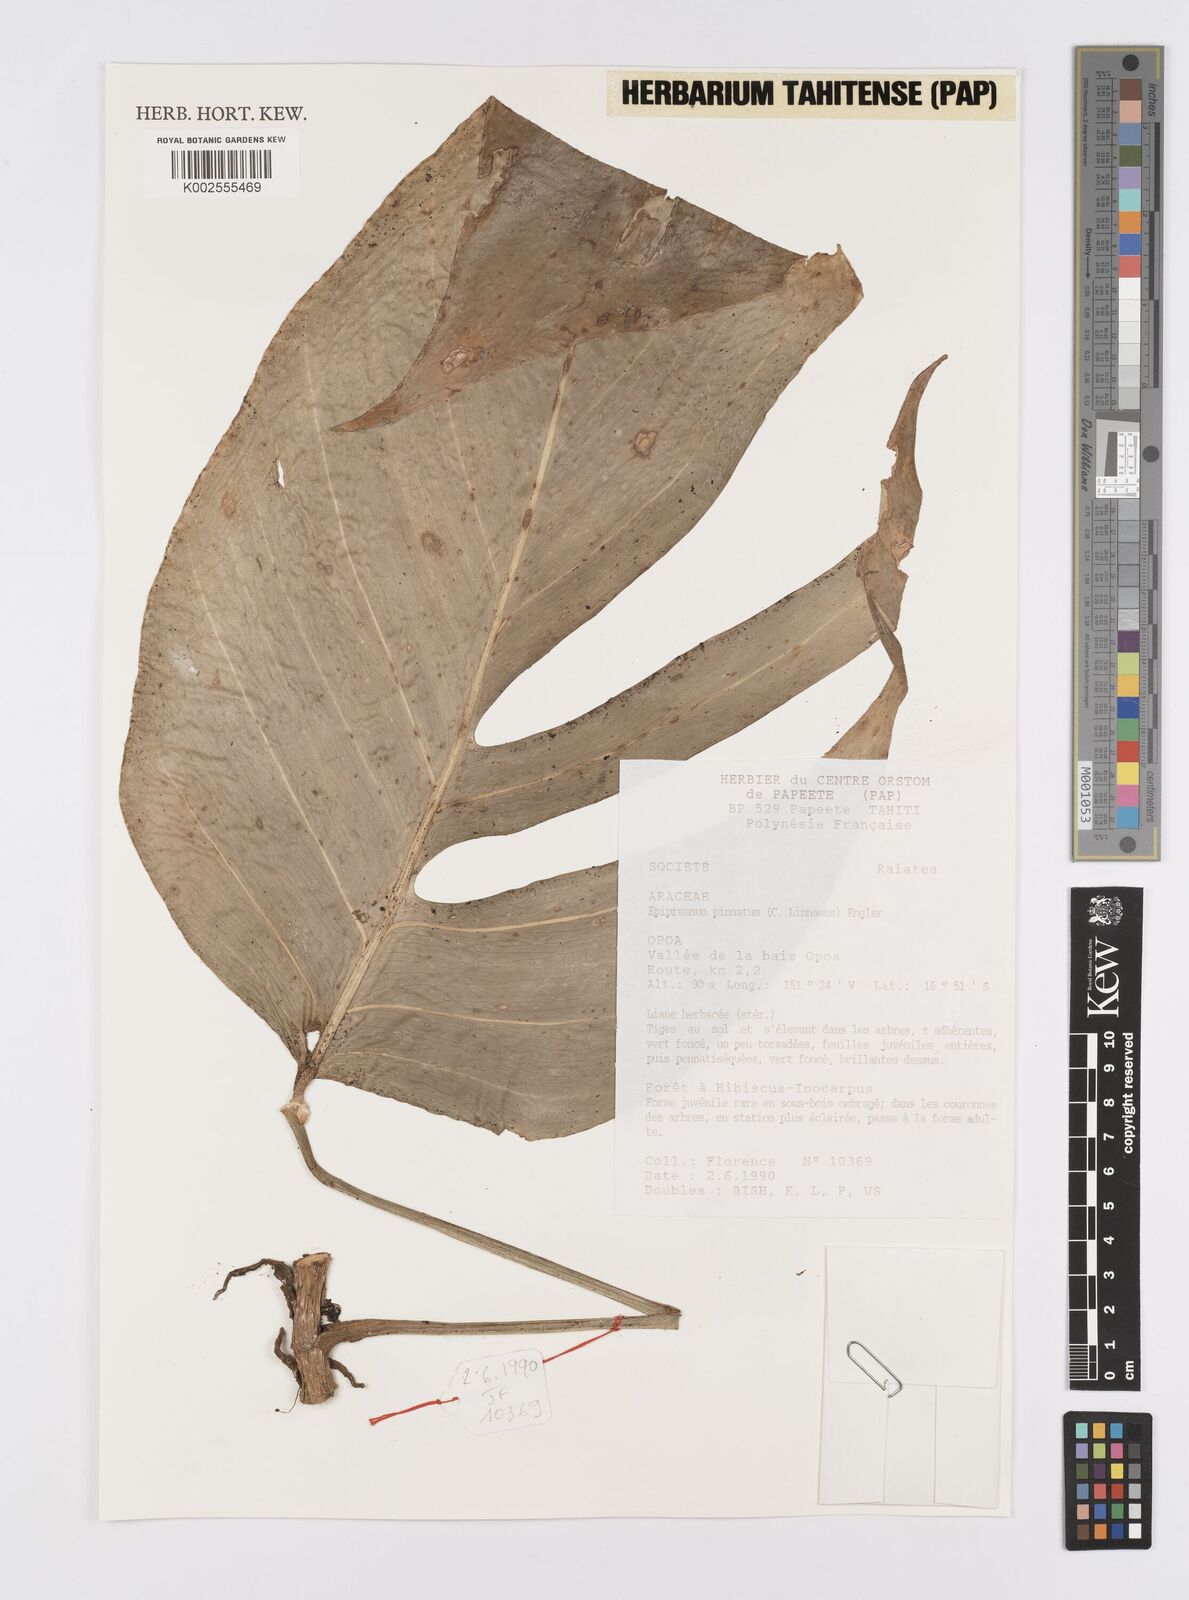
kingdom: Plantae
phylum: Tracheophyta
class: Liliopsida
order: Alismatales
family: Araceae
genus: Epipremnum
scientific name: Epipremnum pinnatum
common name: Centipede tongavine
